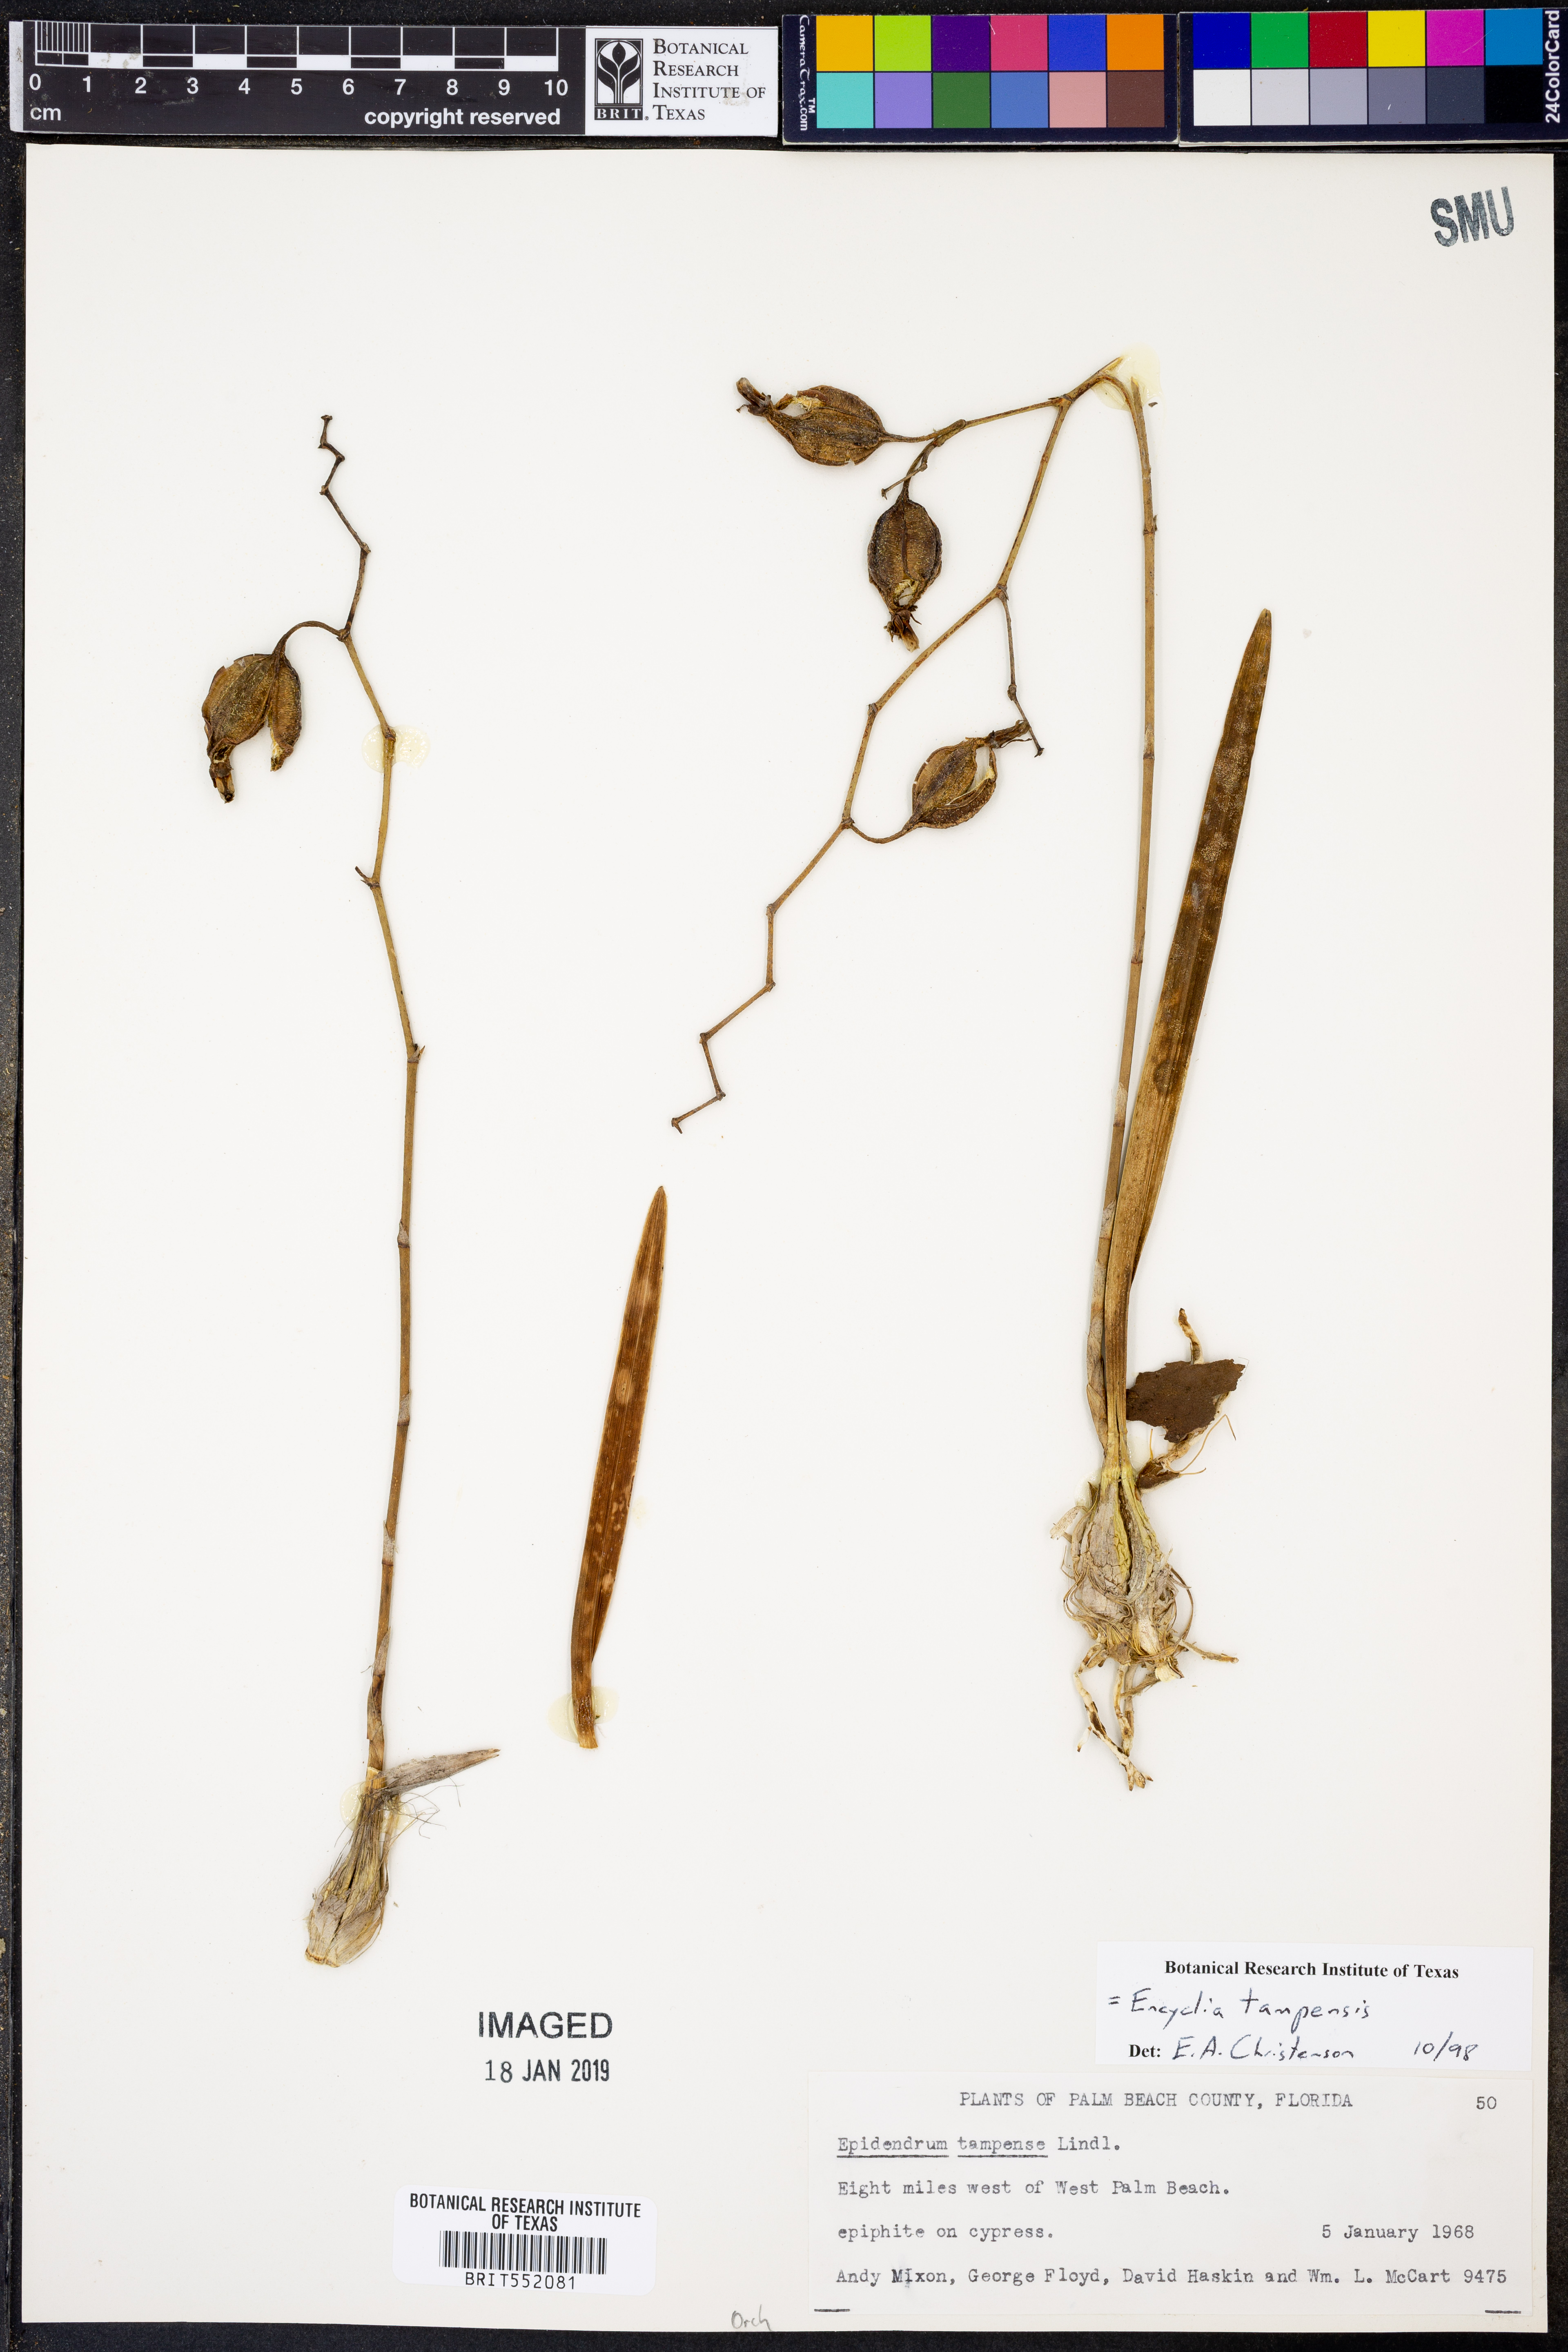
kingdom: Plantae
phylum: Tracheophyta
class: Liliopsida
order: Asparagales
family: Orchidaceae
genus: Encyclia
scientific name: Encyclia tampensis
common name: Florida butterfly orchid
